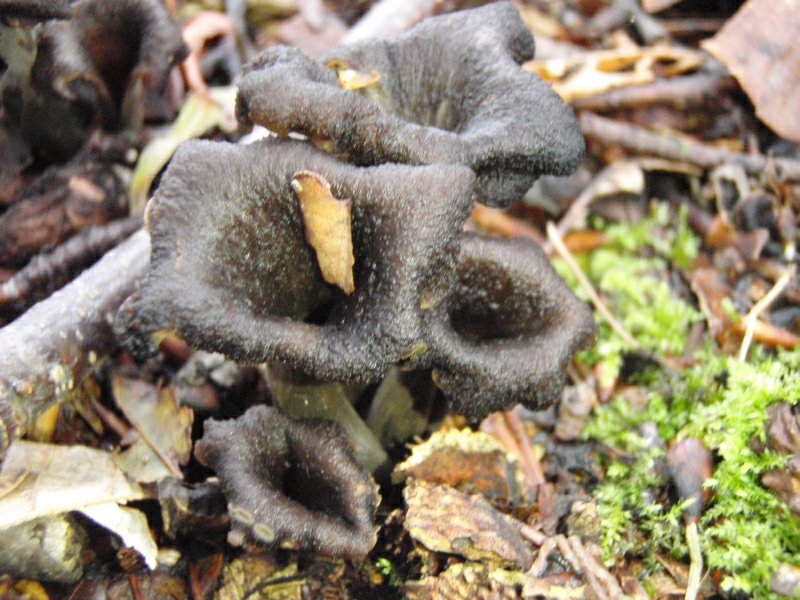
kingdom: Fungi
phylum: Basidiomycota
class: Agaricomycetes
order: Cantharellales
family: Hydnaceae
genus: Craterellus
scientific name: Craterellus cornucopioides
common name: trompetsvamp
